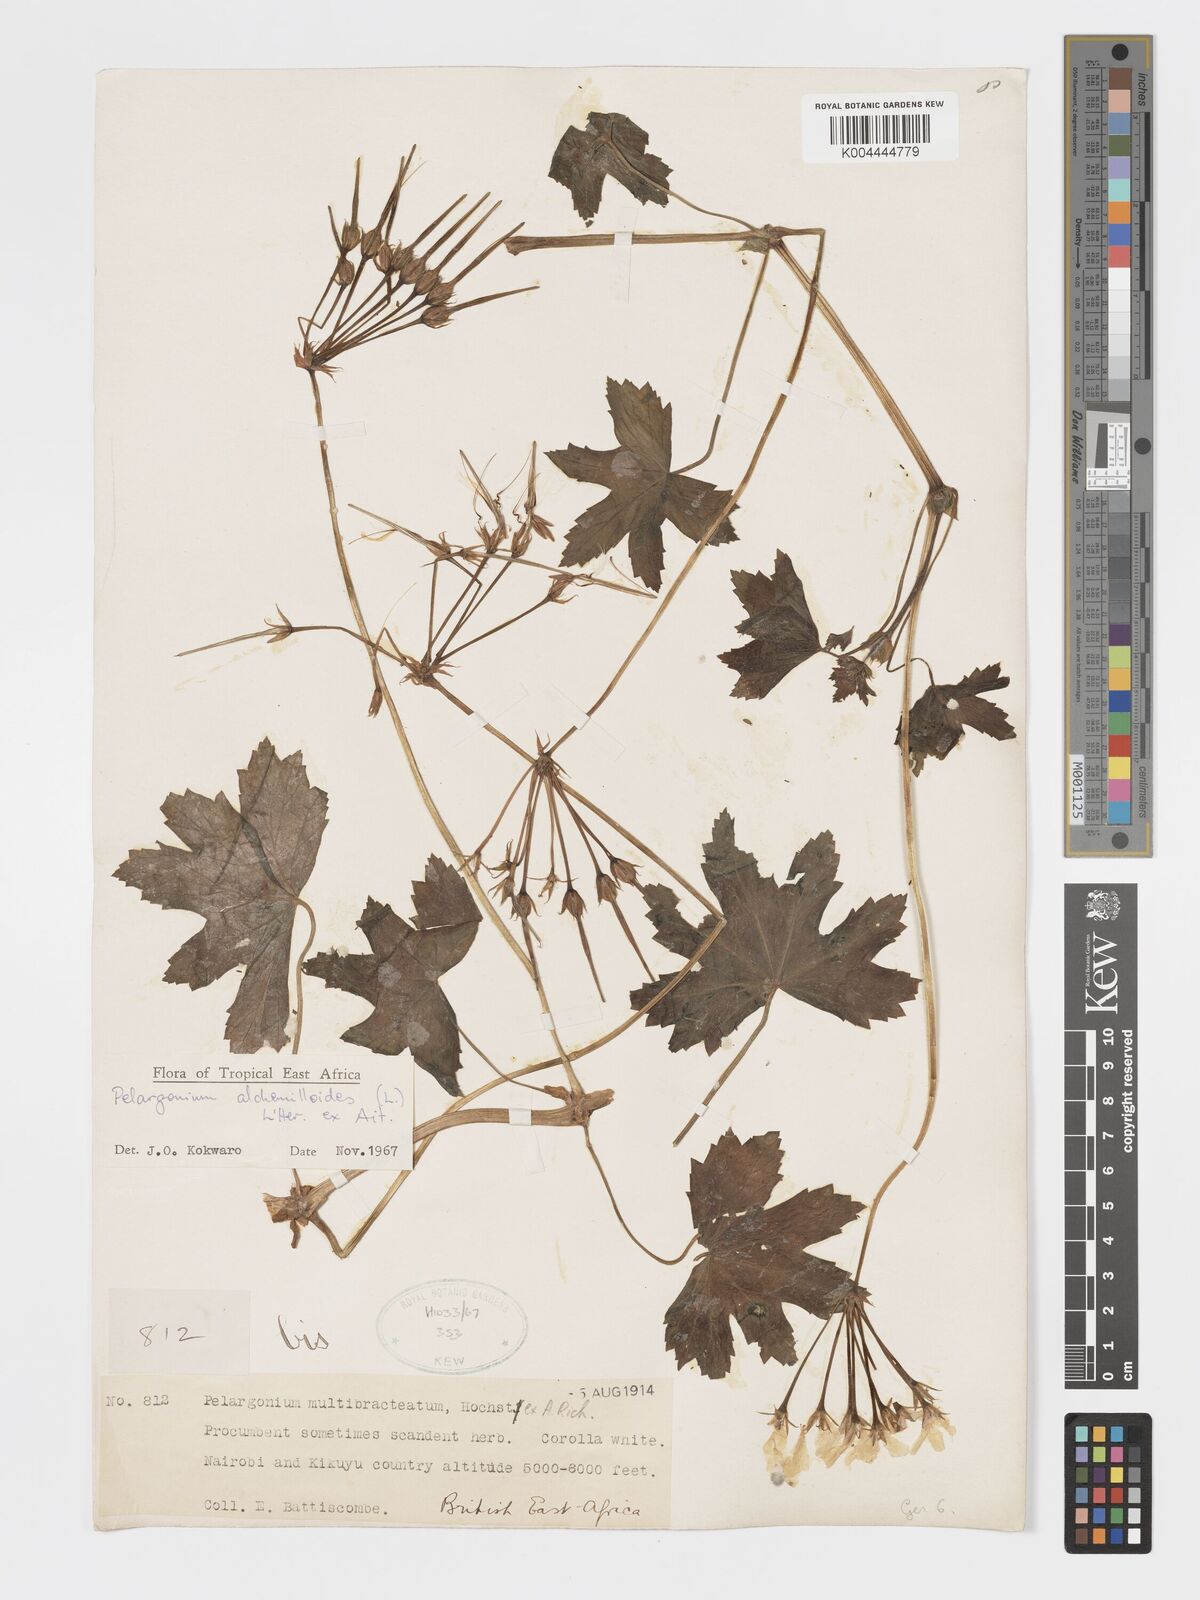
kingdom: Plantae
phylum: Tracheophyta
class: Magnoliopsida
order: Geraniales
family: Geraniaceae
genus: Pelargonium
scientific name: Pelargonium alchemilloides
